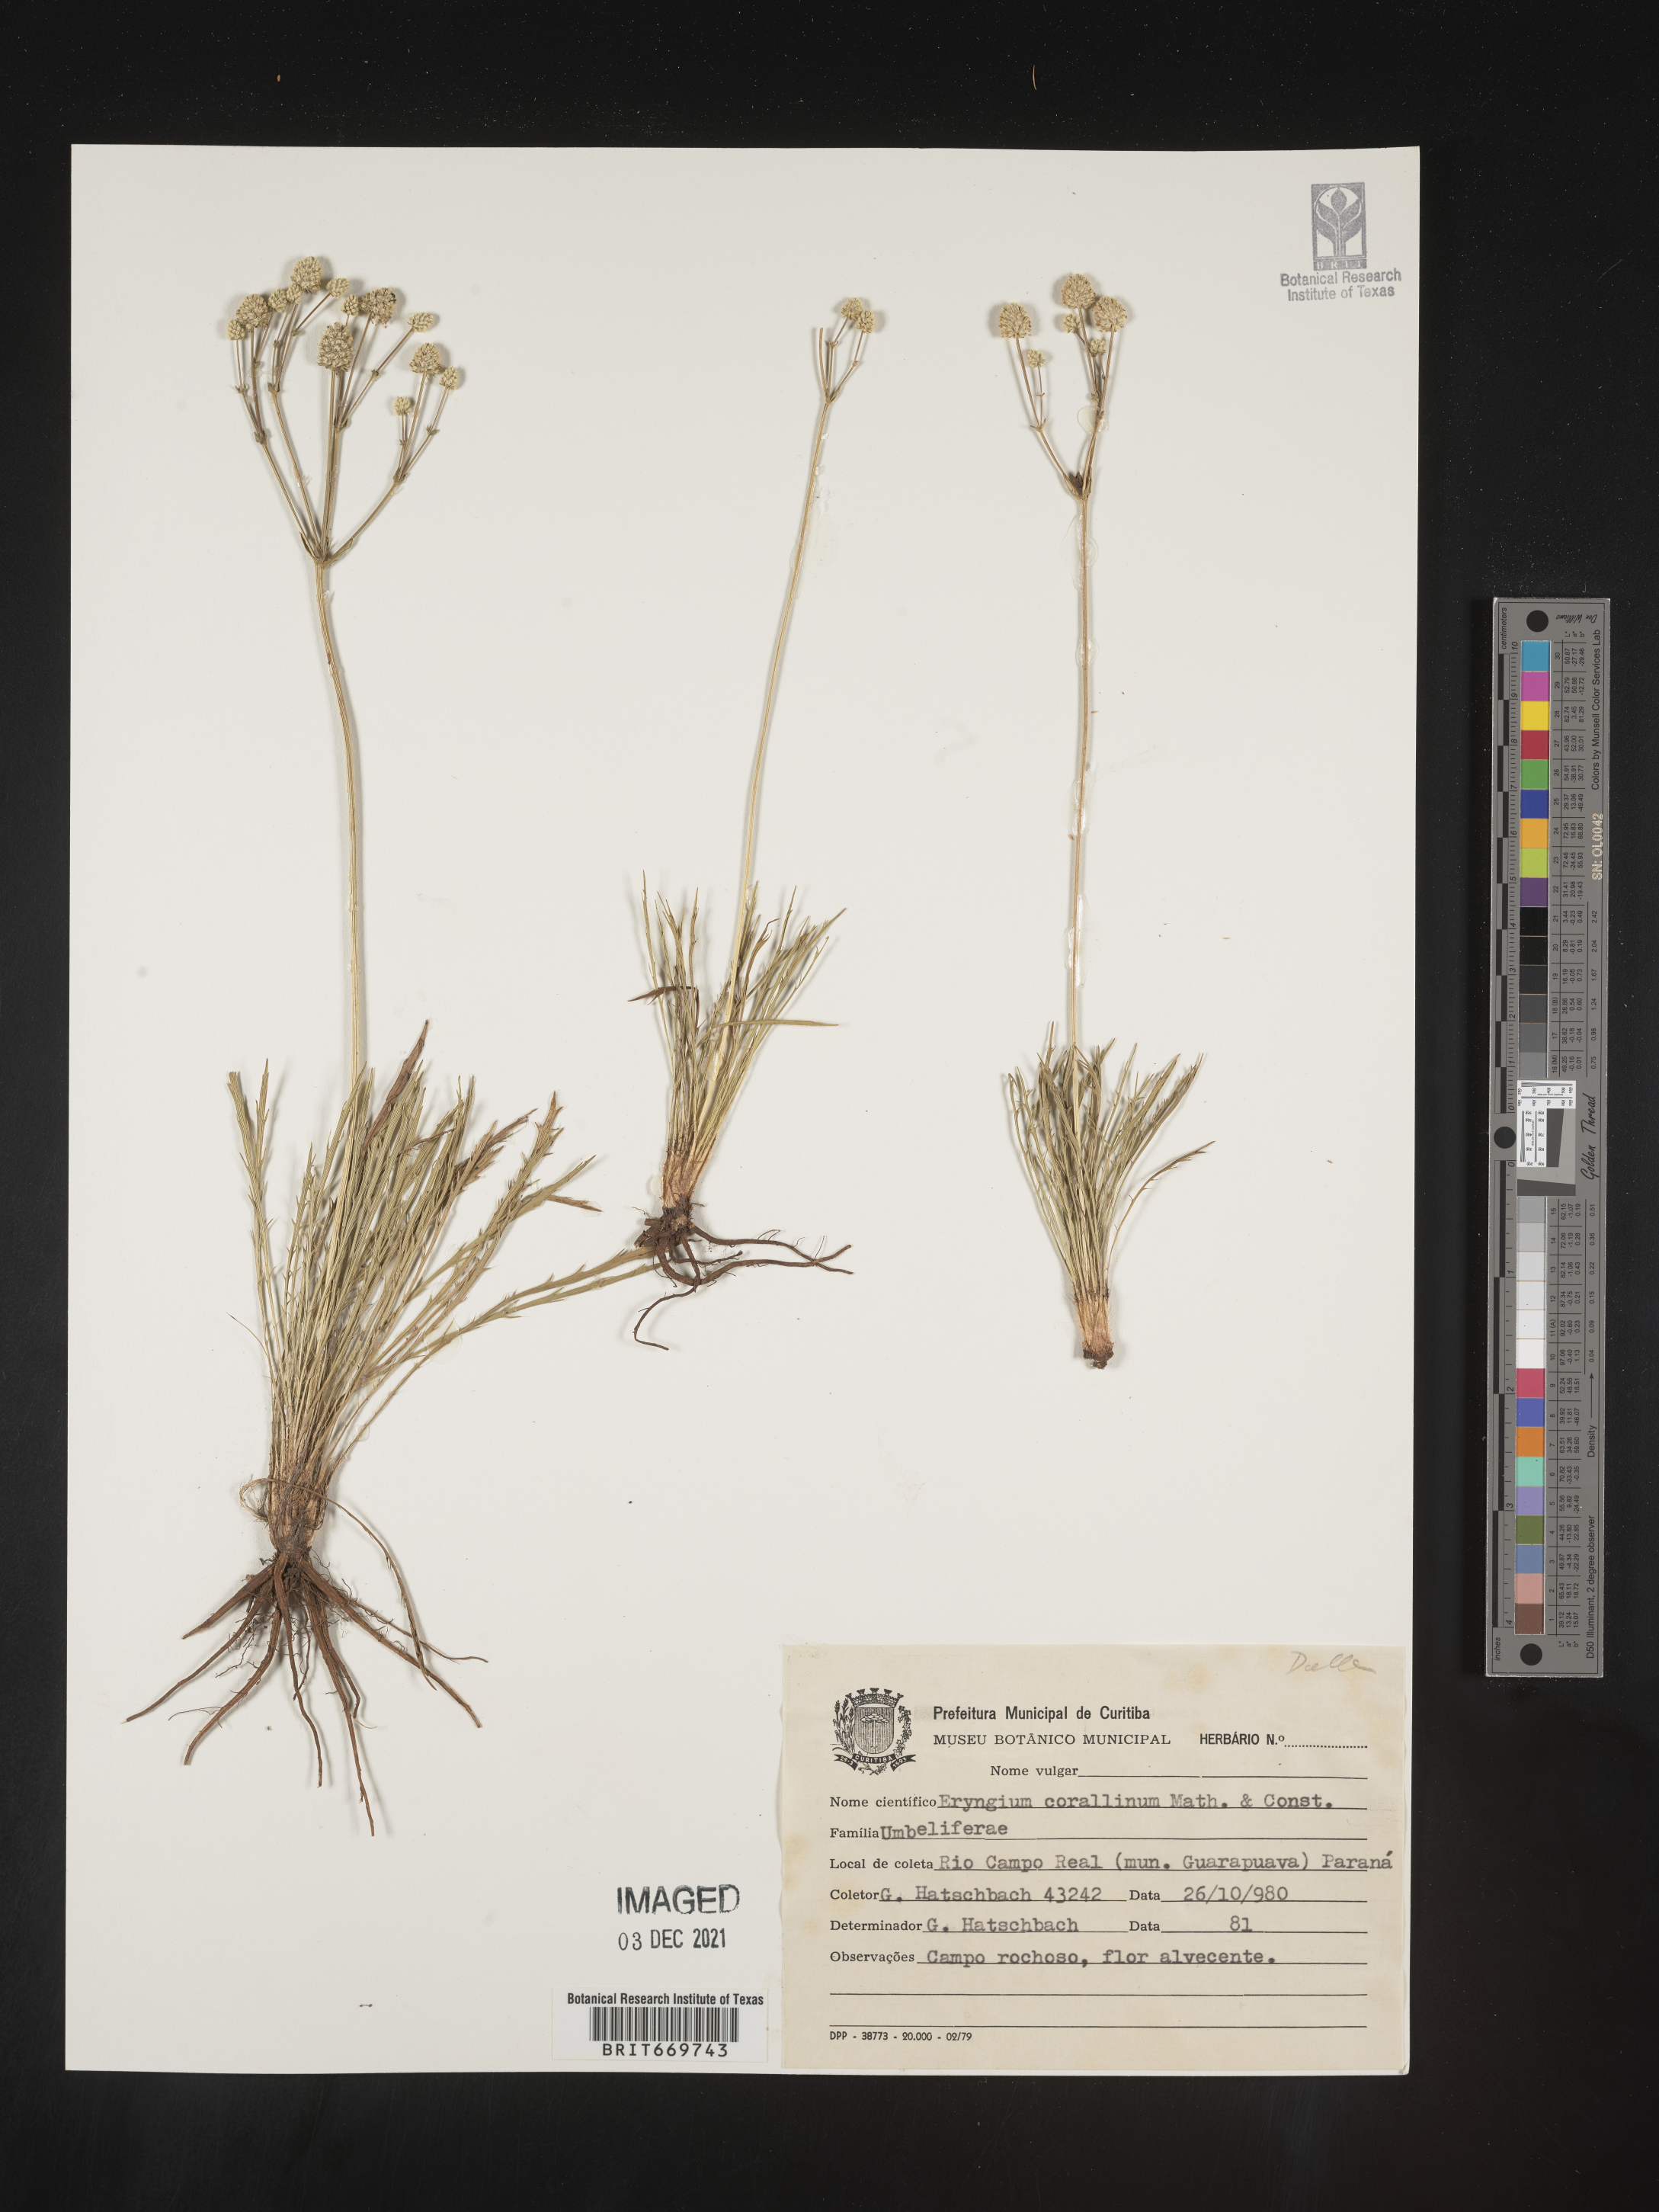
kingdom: Plantae
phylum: Tracheophyta
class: Magnoliopsida
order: Apiales
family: Apiaceae
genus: Eryngium
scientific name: Eryngium
